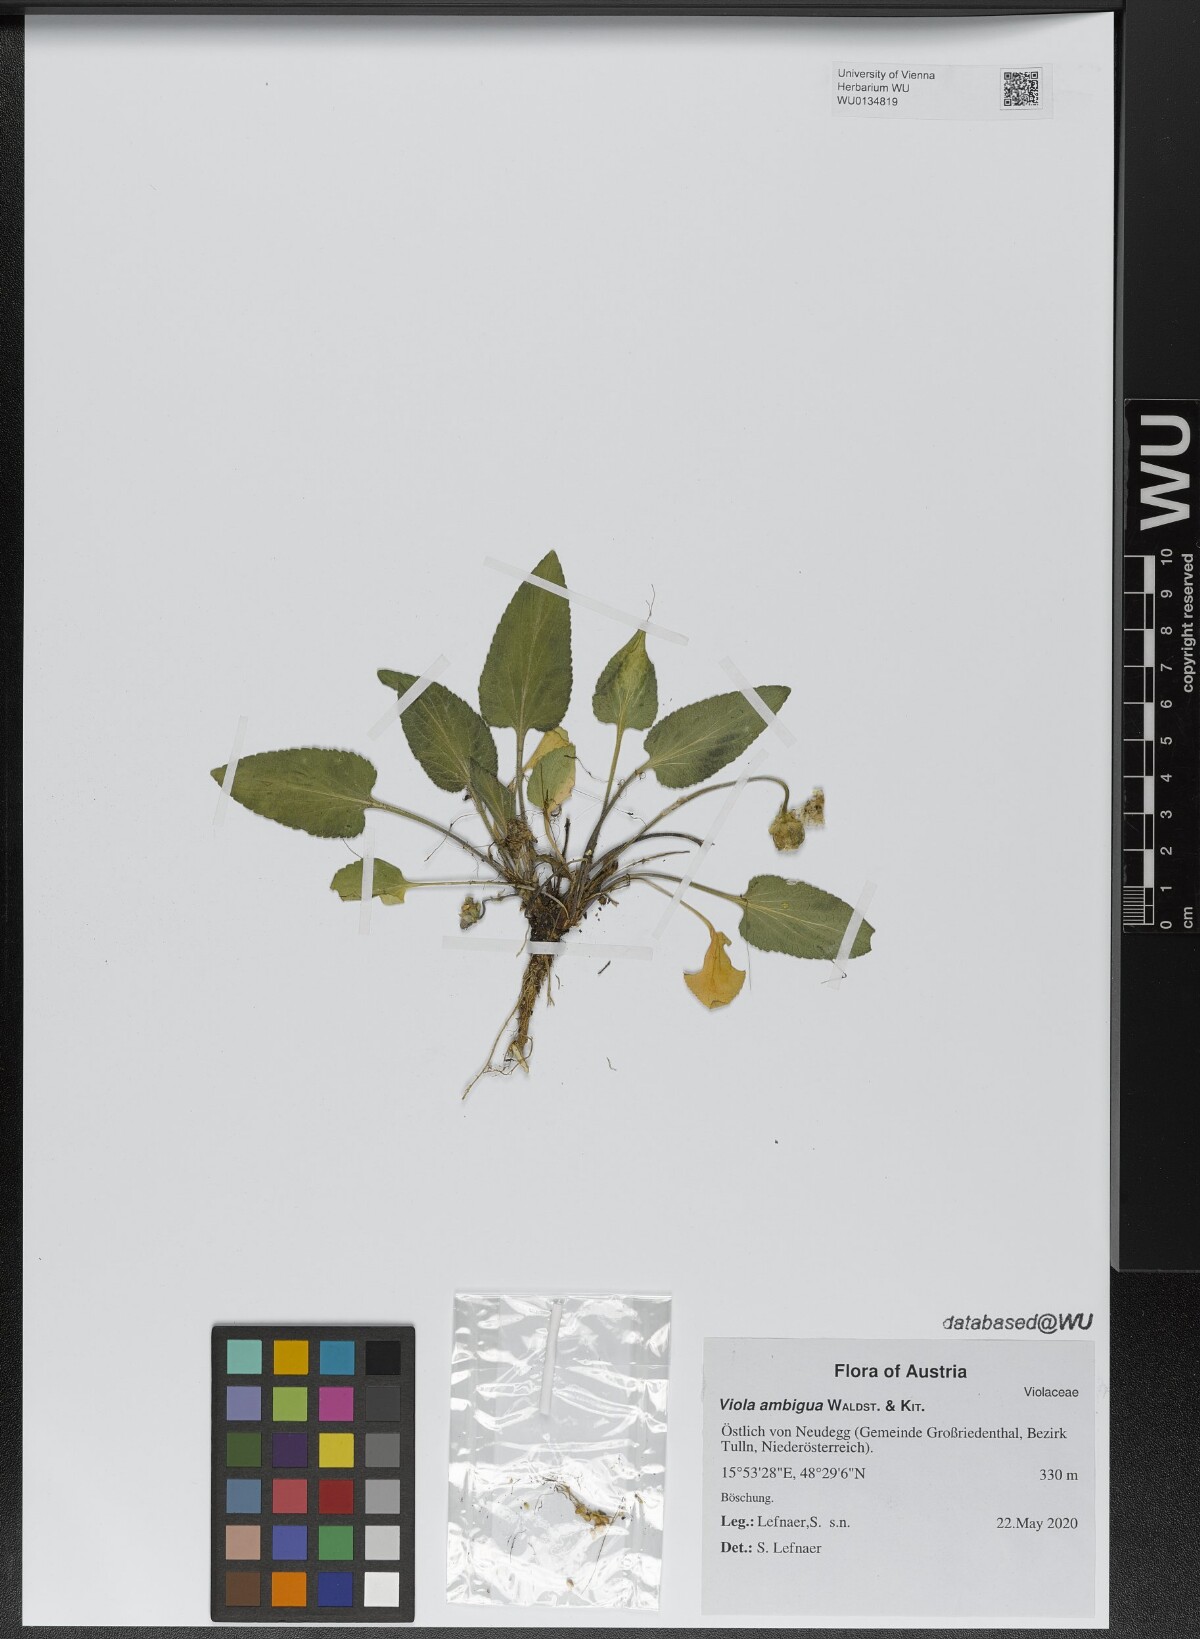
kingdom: Plantae
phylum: Tracheophyta
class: Magnoliopsida
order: Malpighiales
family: Violaceae
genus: Viola
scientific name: Viola ambigua
